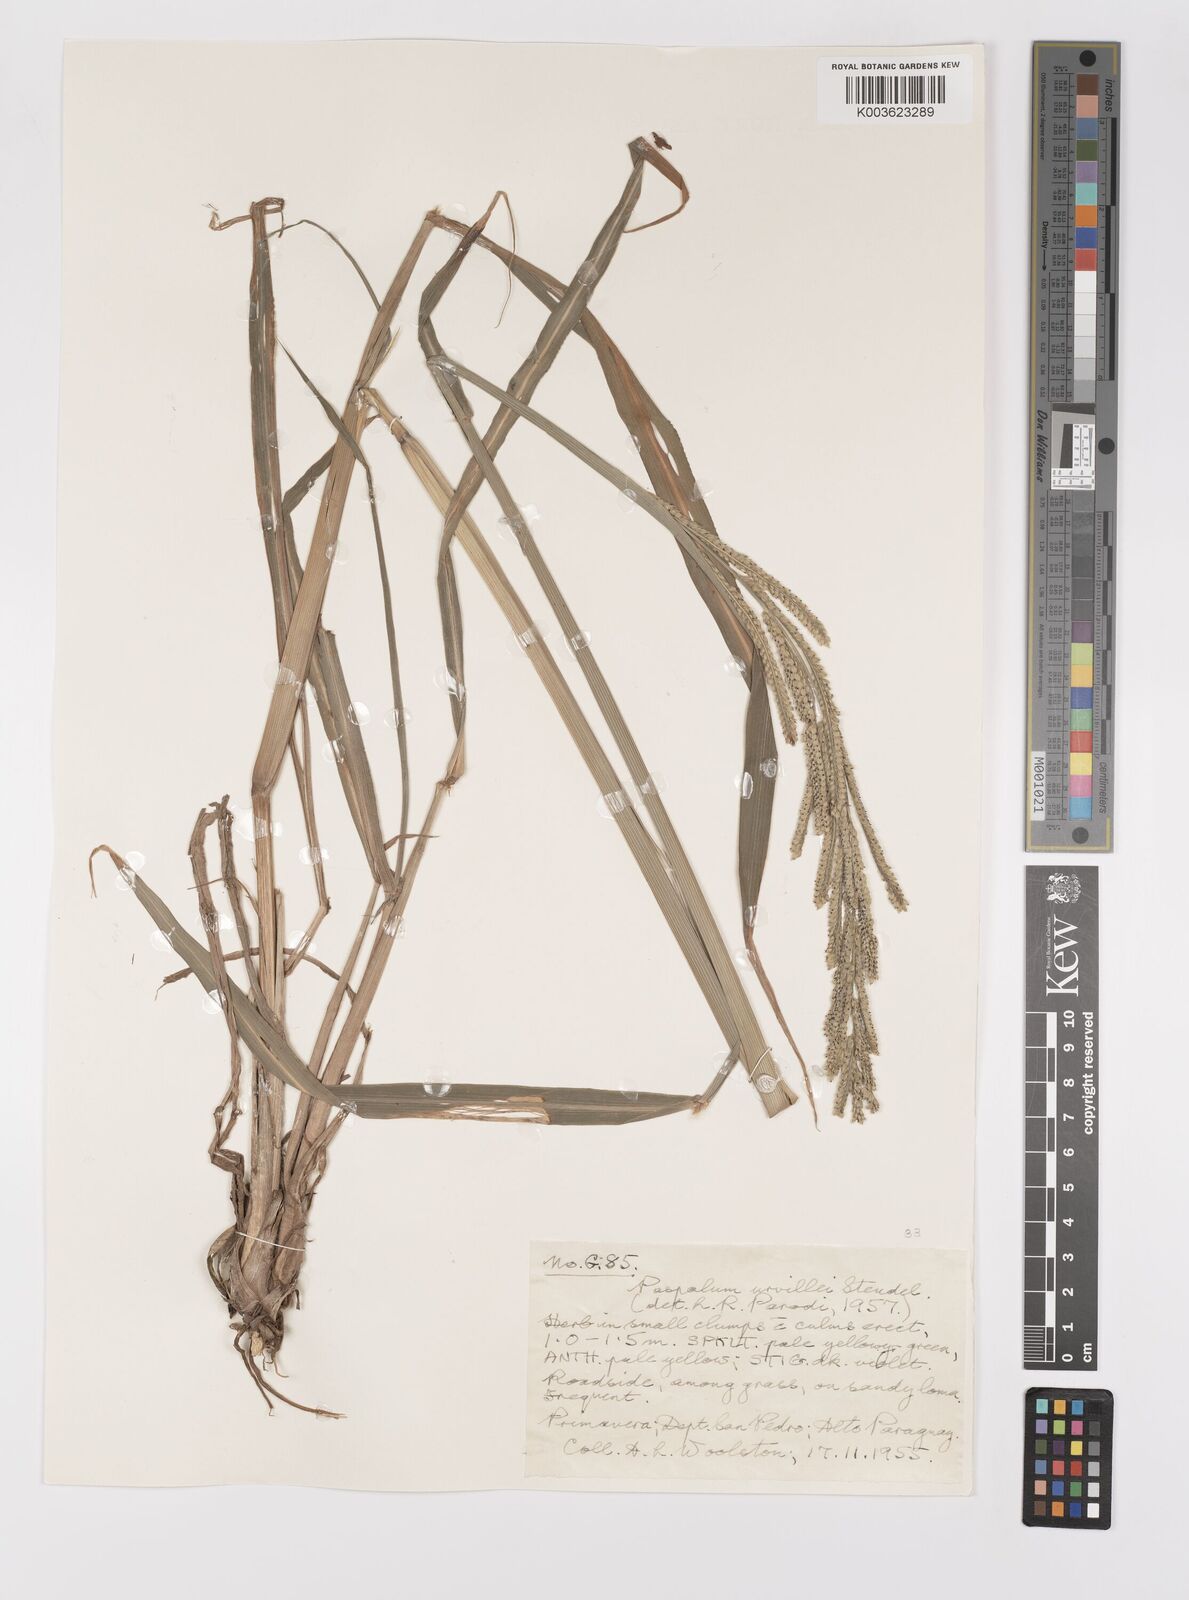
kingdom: Plantae
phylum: Tracheophyta
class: Liliopsida
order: Poales
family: Poaceae
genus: Paspalum
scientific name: Paspalum urvillei
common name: Vasey's grass
